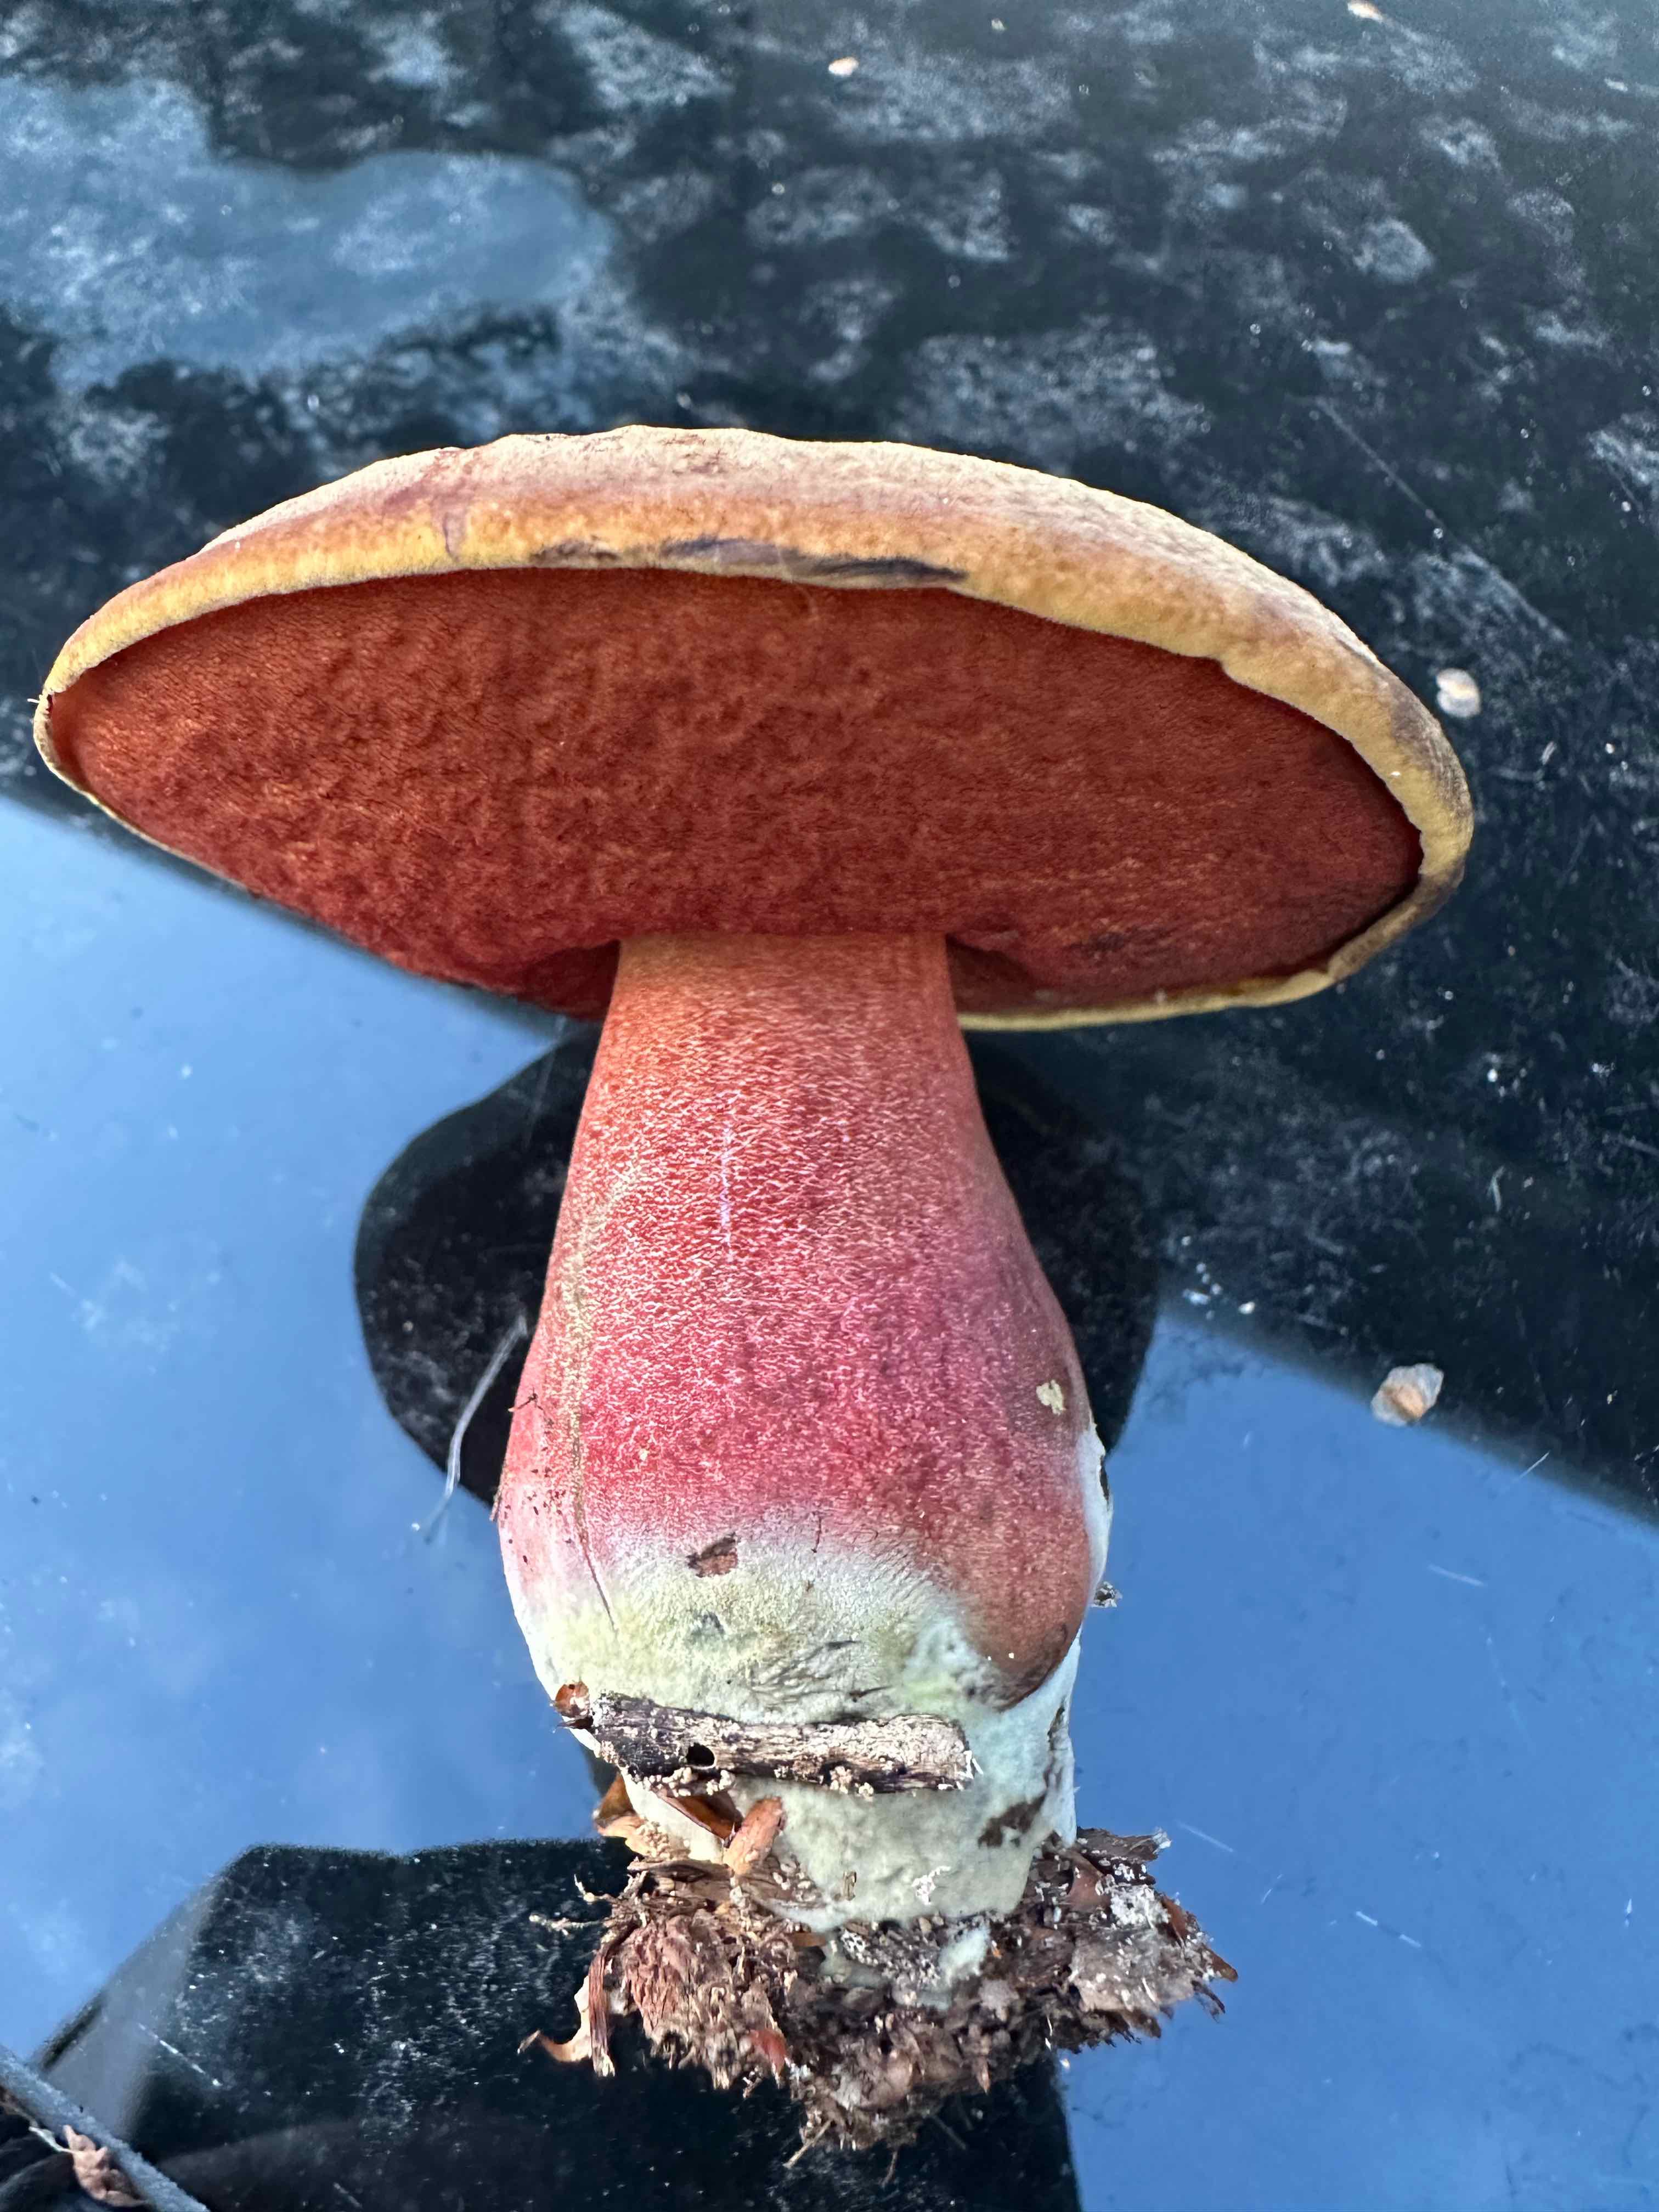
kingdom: Fungi
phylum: Basidiomycota
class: Agaricomycetes
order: Boletales
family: Boletaceae
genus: Neoboletus
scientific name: Neoboletus erythropus
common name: punktstokket indigorørhat
